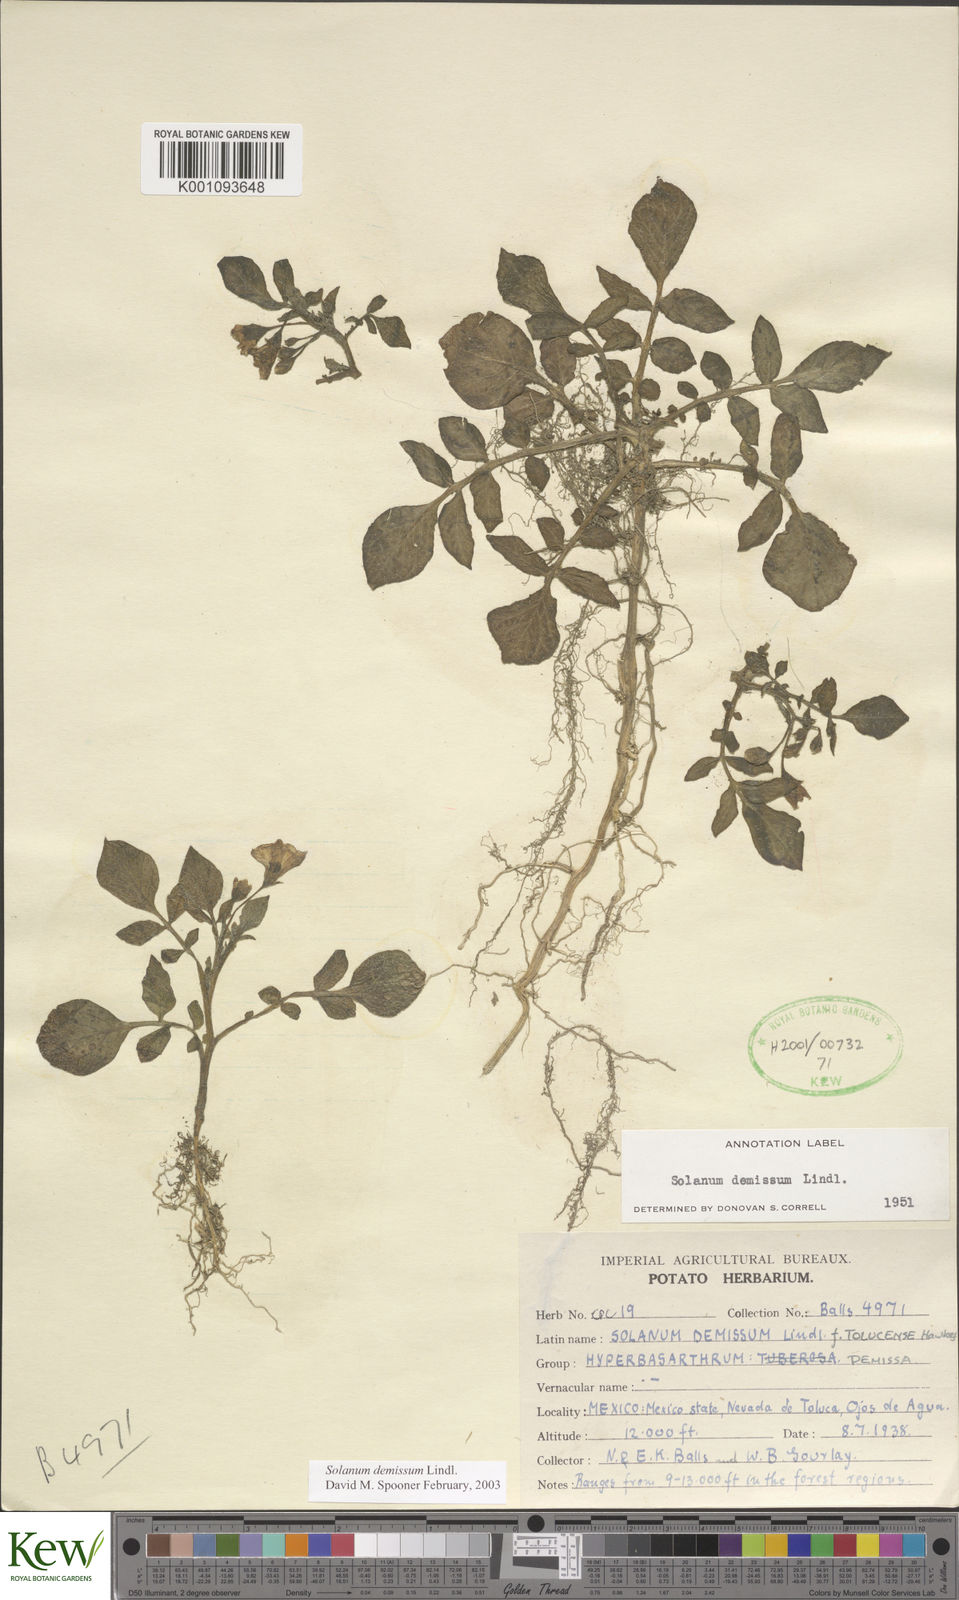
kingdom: Plantae
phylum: Tracheophyta
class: Magnoliopsida
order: Solanales
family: Solanaceae
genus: Solanum
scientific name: Solanum demissum
